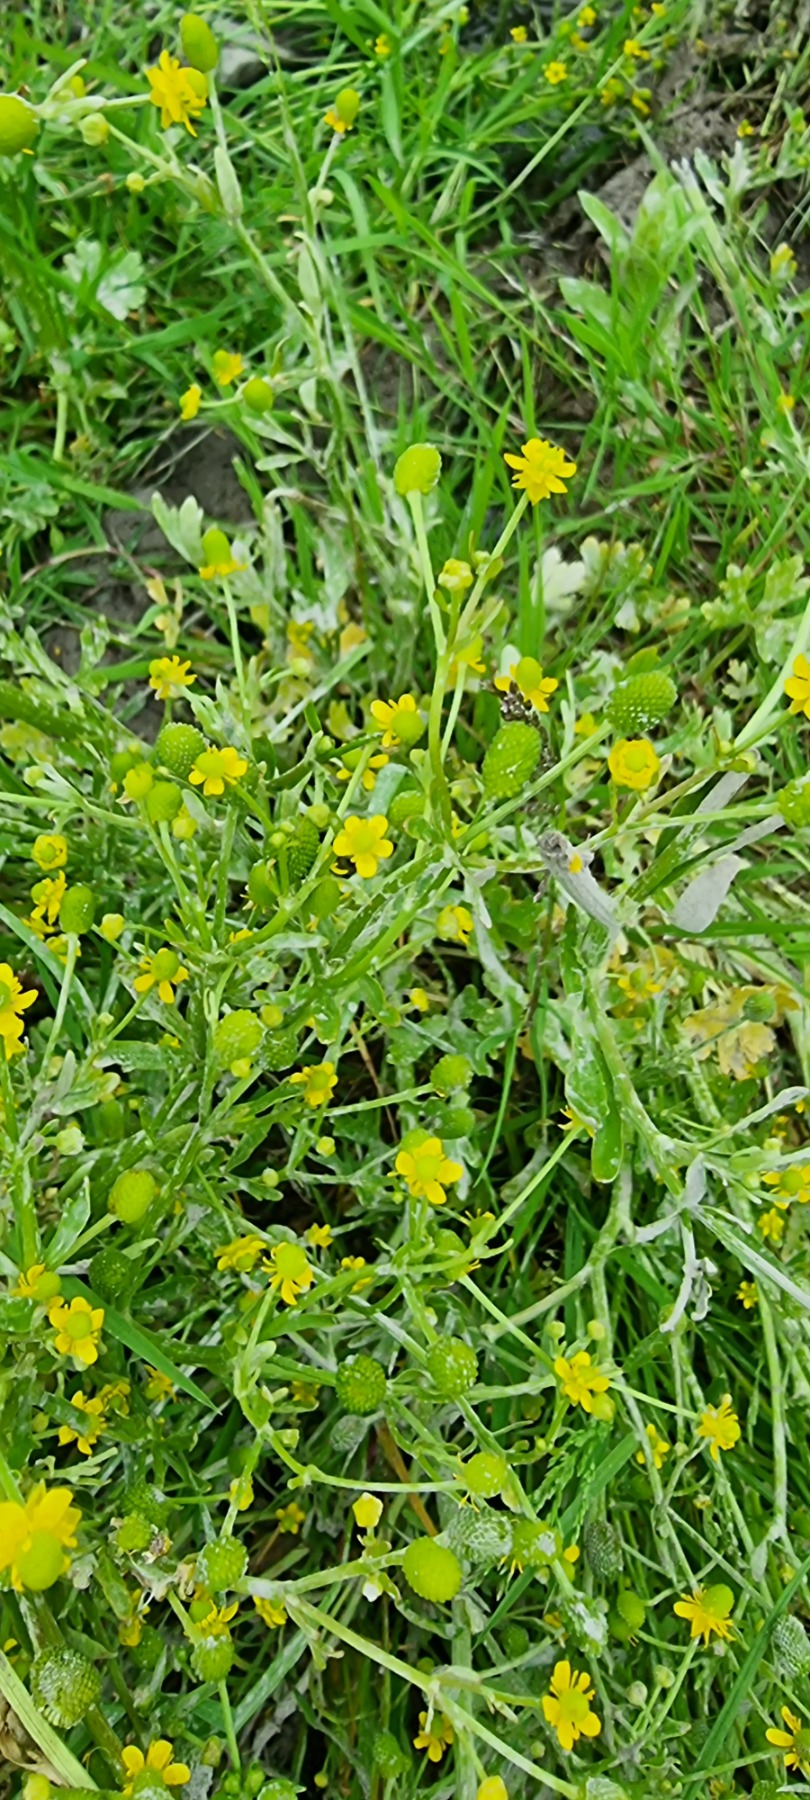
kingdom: Plantae
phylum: Tracheophyta
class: Magnoliopsida
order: Ranunculales
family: Ranunculaceae
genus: Ranunculus
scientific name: Ranunculus sceleratus
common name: Tigger-ranunkel
